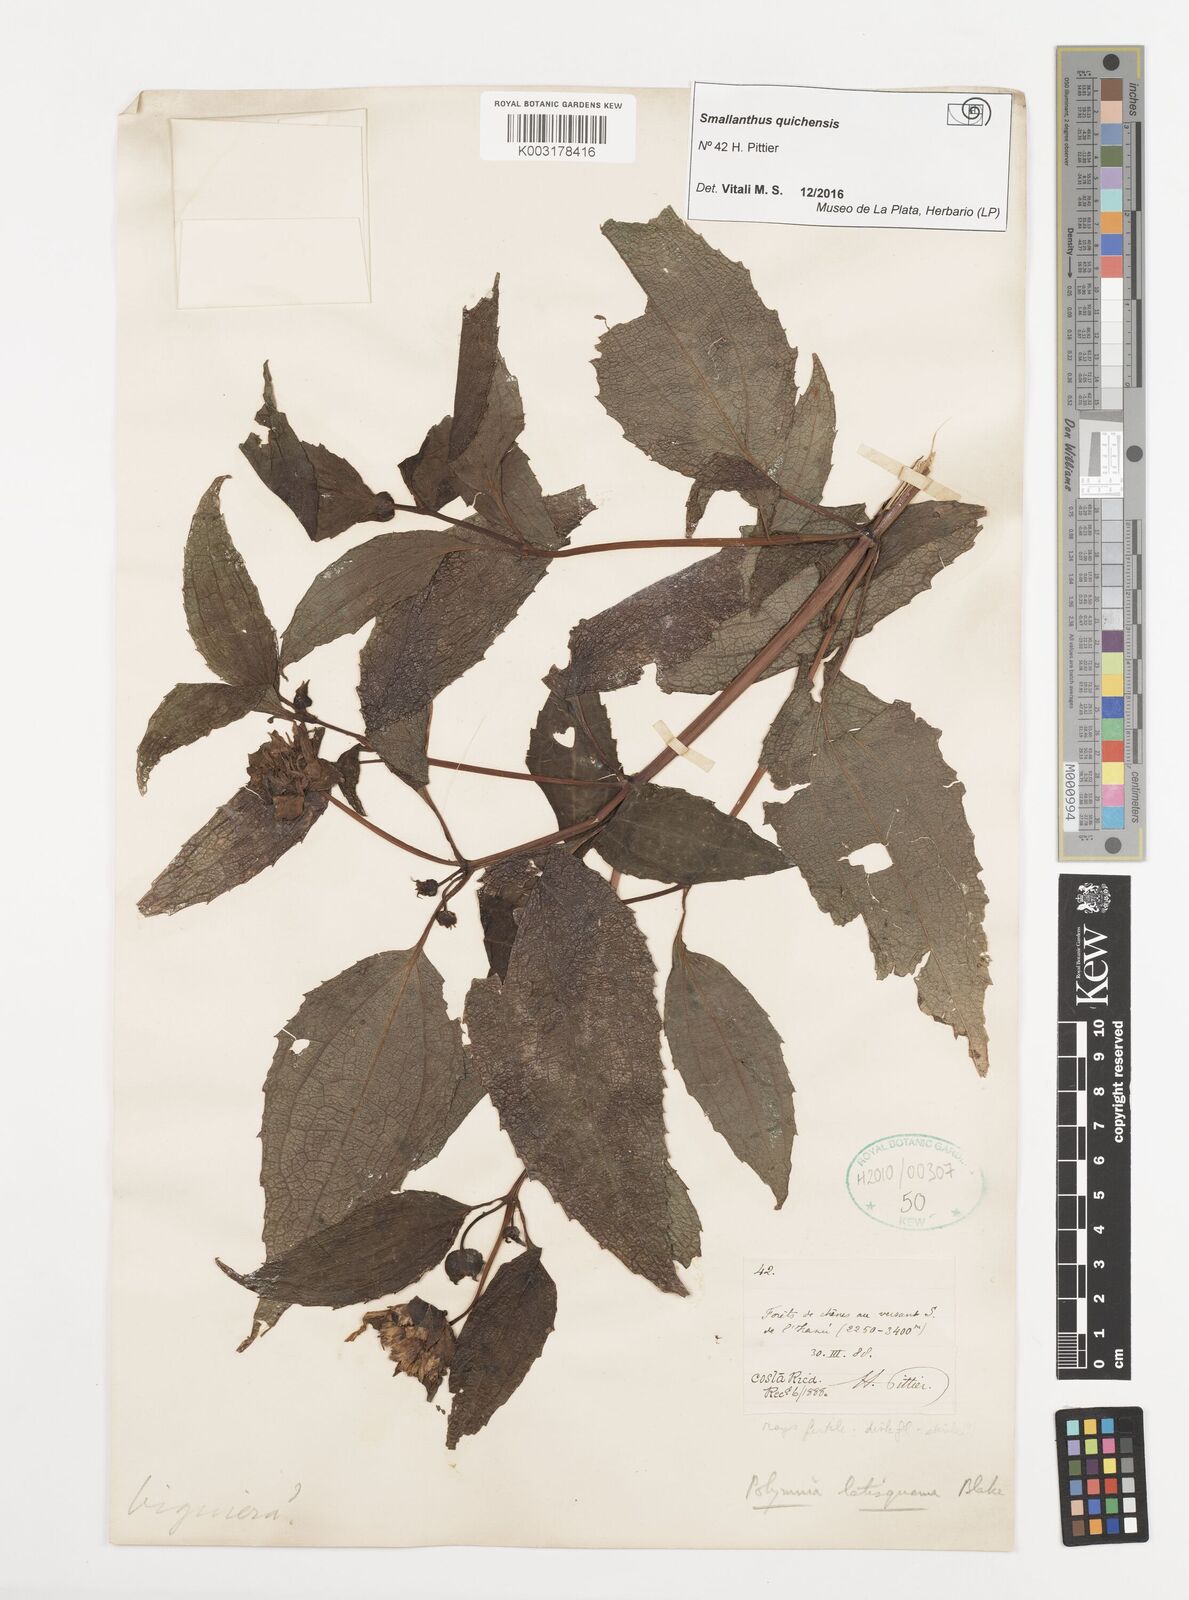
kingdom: Plantae
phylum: Tracheophyta
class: Magnoliopsida
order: Asterales
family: Asteraceae
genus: Smallanthus
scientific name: Smallanthus quichensis
